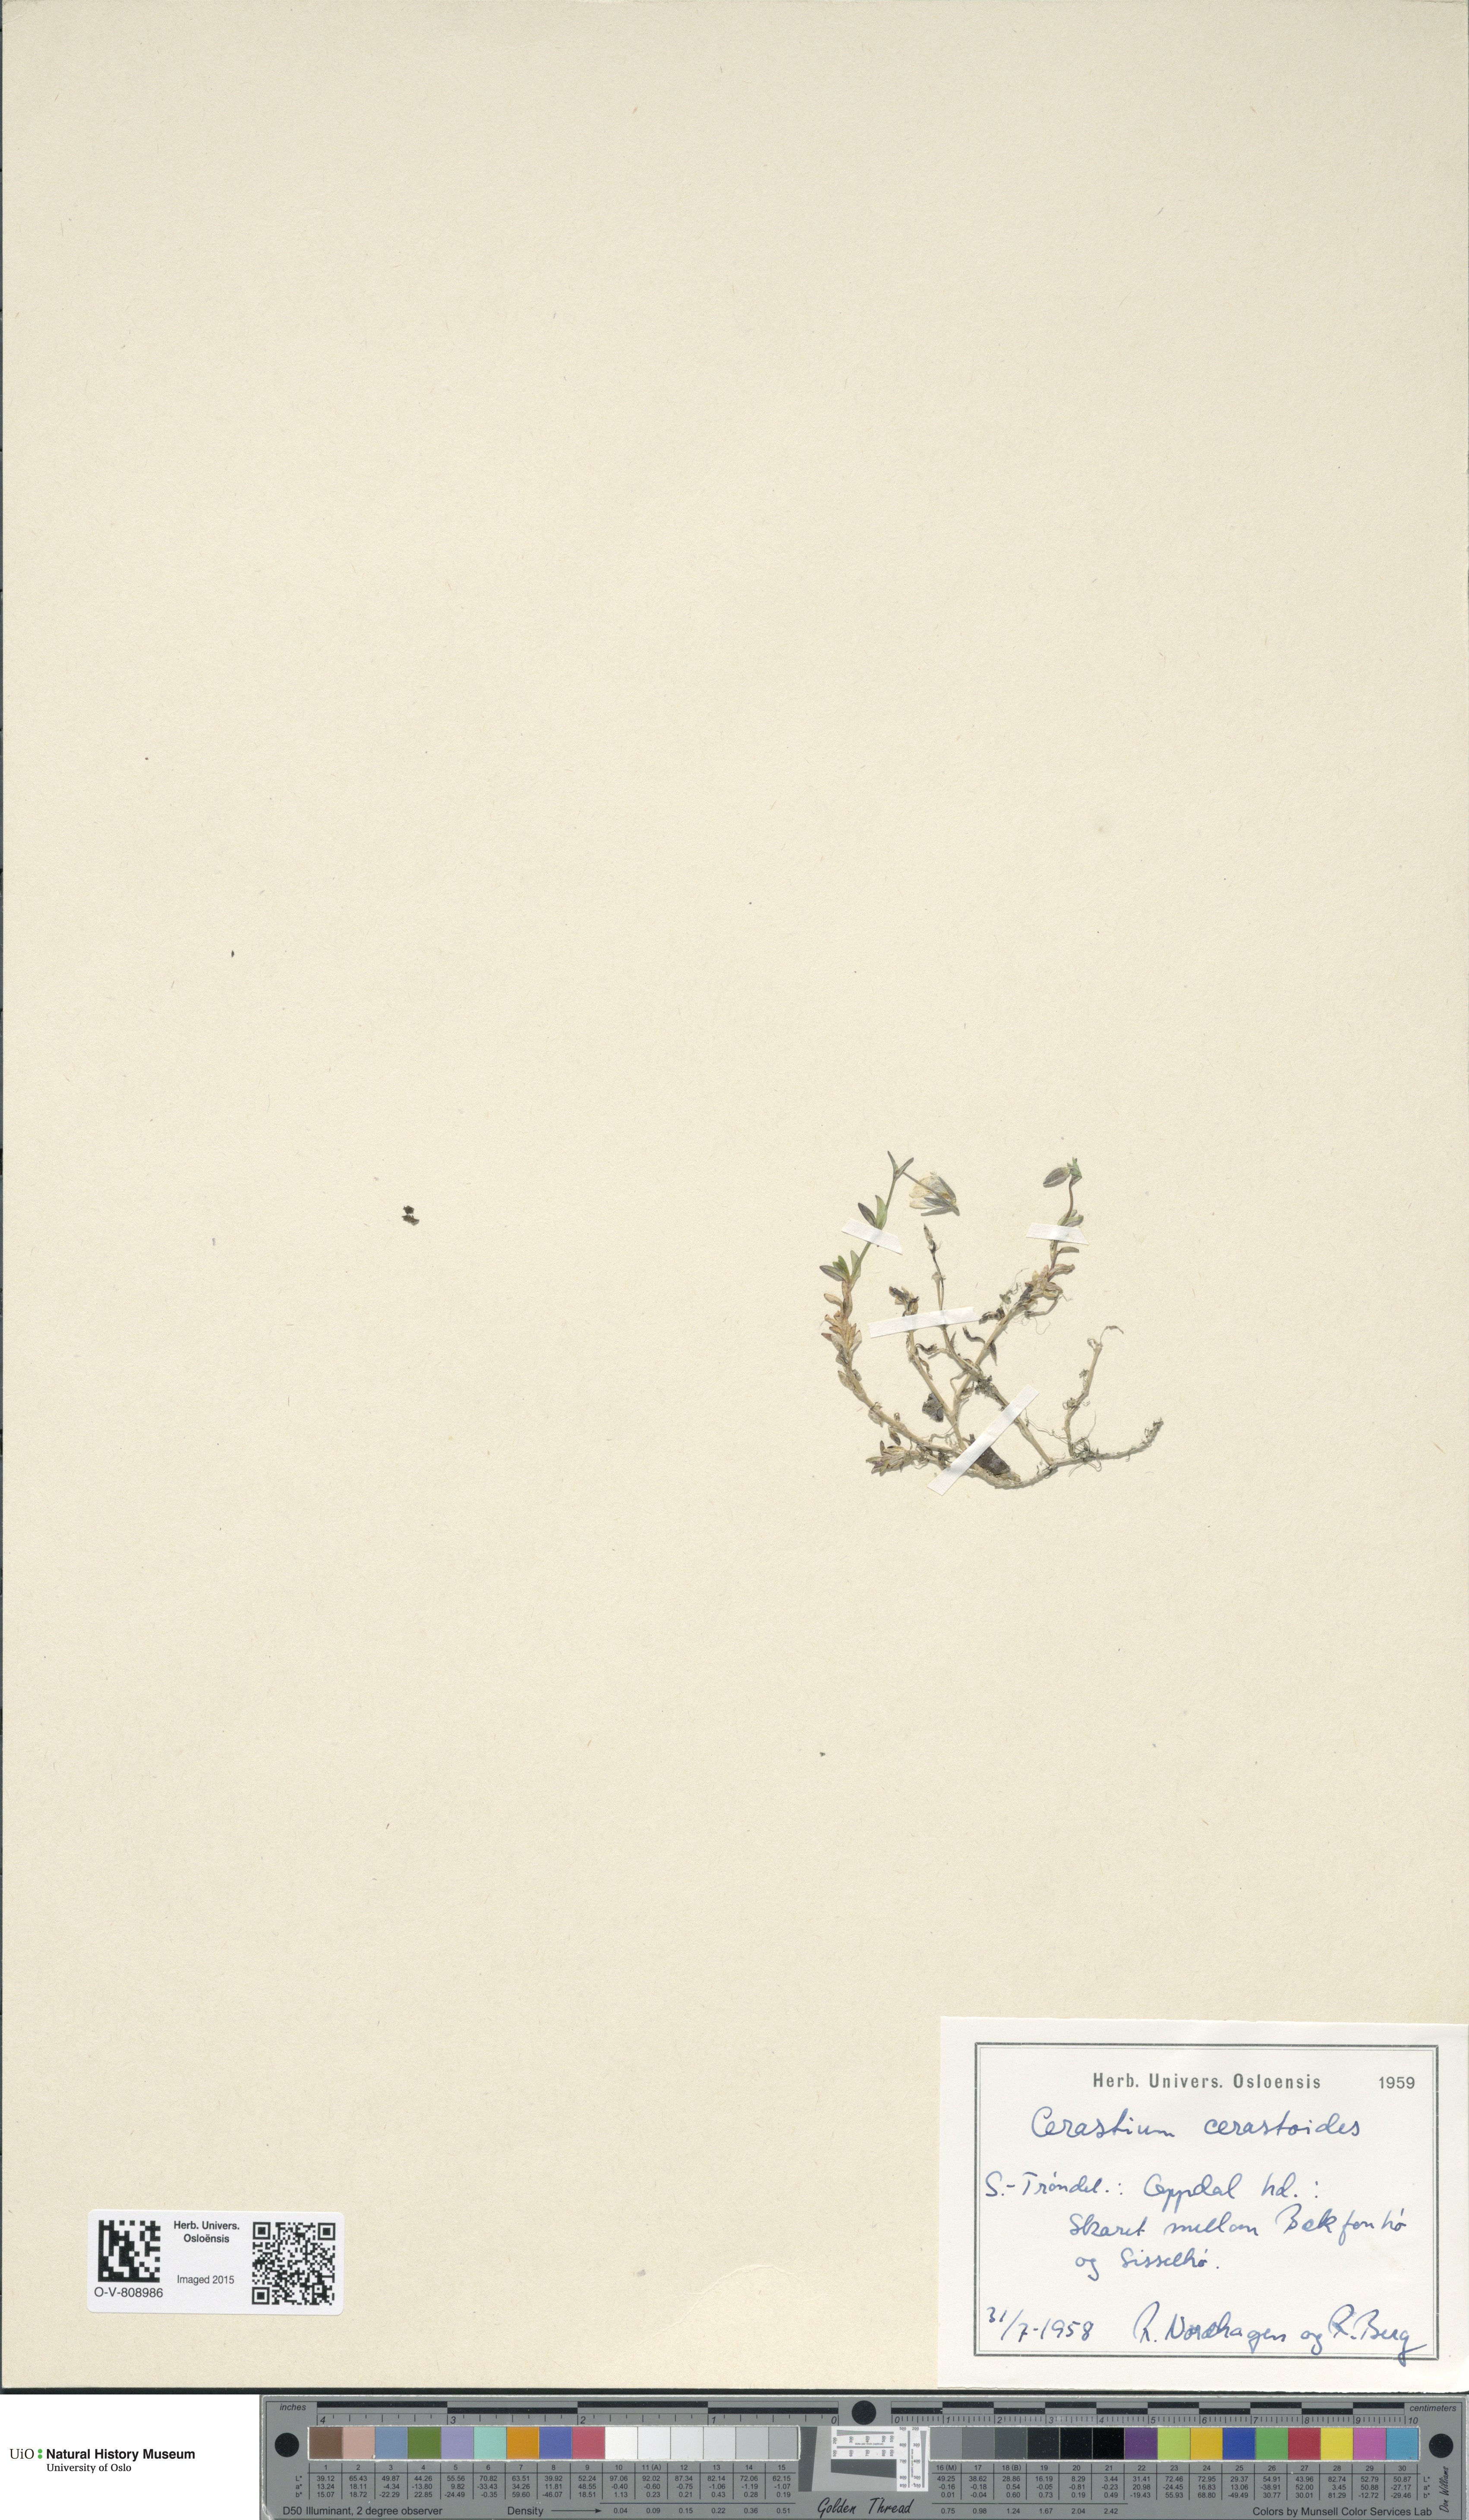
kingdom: Plantae
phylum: Tracheophyta
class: Magnoliopsida
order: Caryophyllales
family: Caryophyllaceae
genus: Dichodon
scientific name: Dichodon cerastoides
